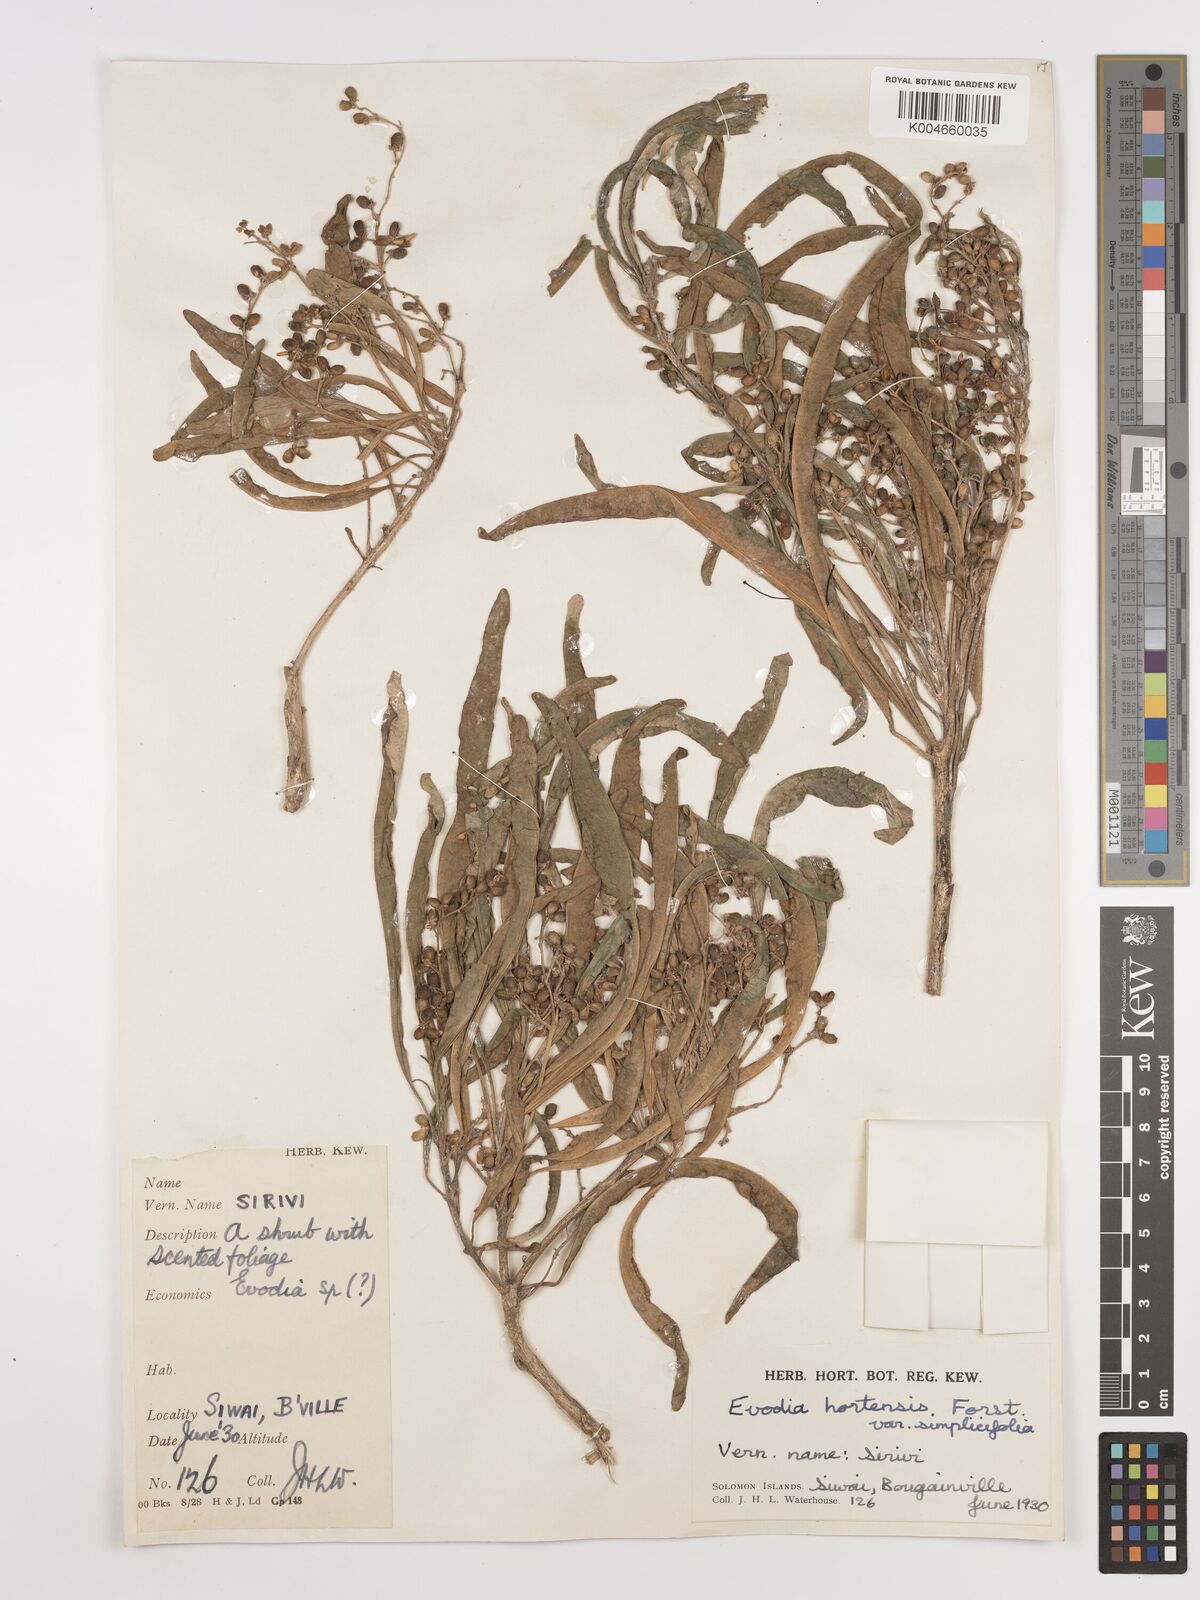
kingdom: Plantae
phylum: Tracheophyta
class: Magnoliopsida
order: Sapindales
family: Rutaceae
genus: Euodia
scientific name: Euodia hortensis
